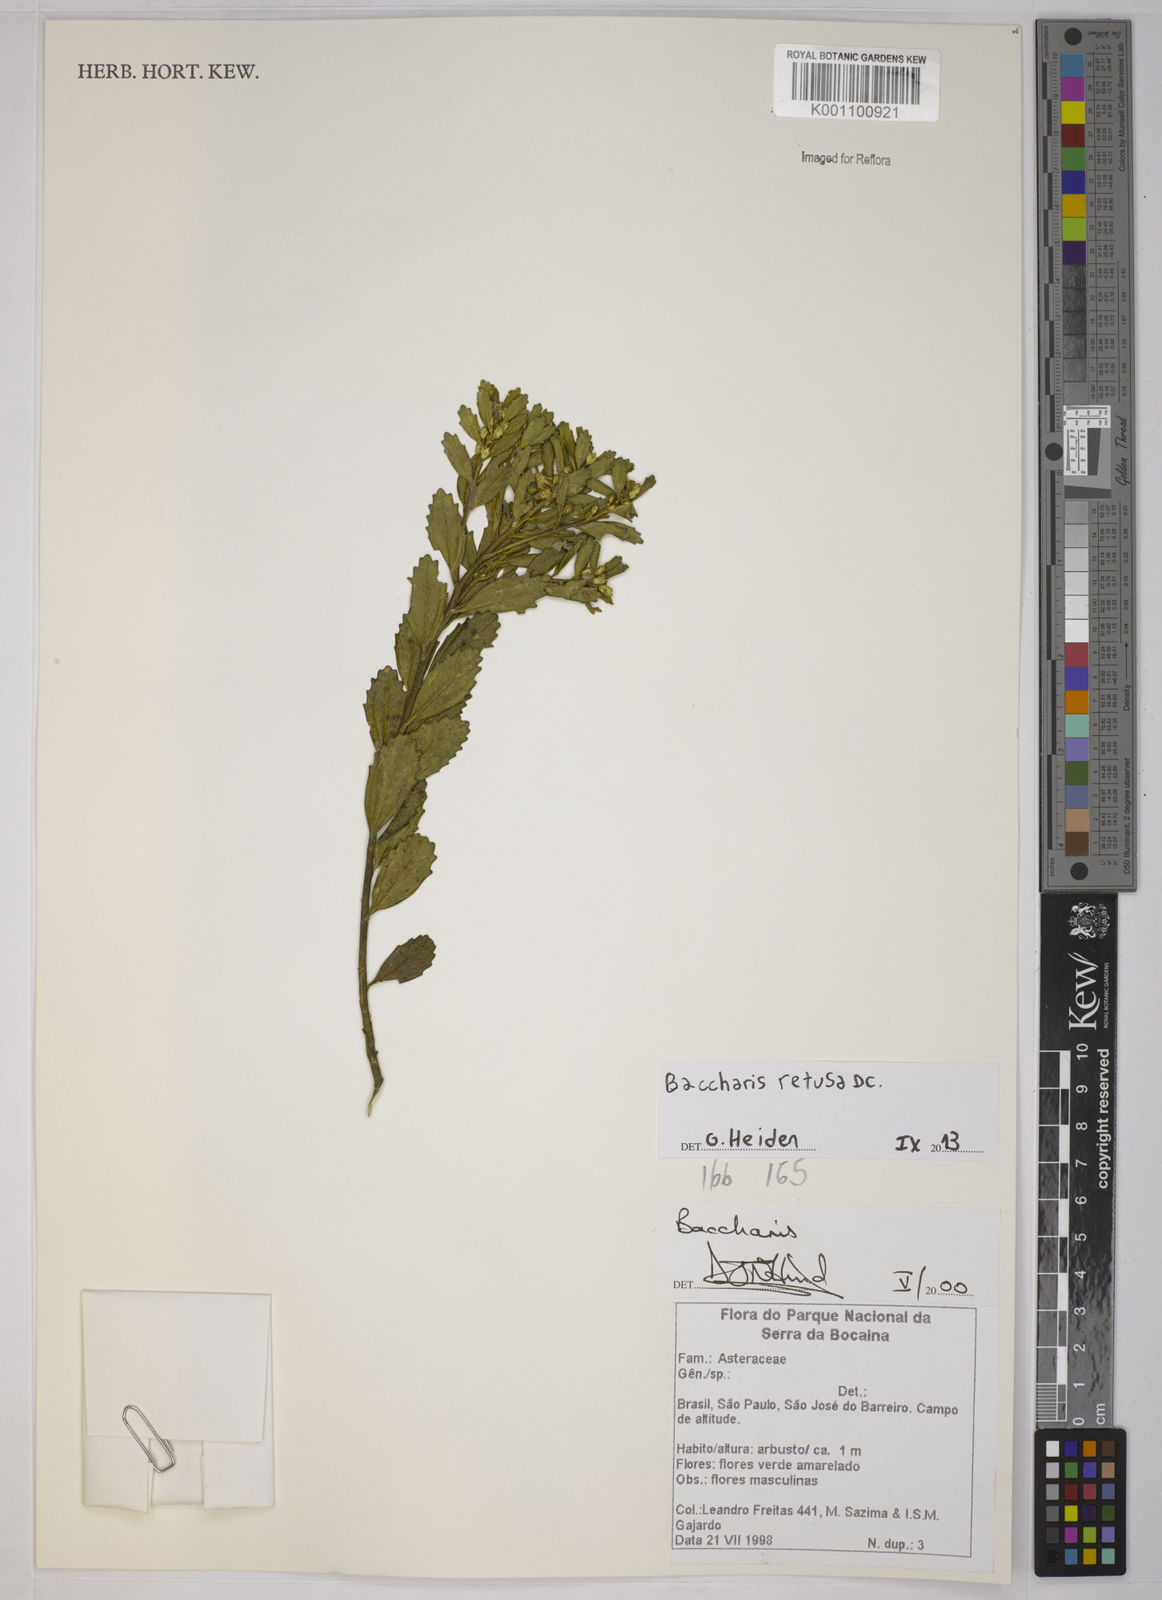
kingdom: Plantae
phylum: Tracheophyta
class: Magnoliopsida
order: Asterales
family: Asteraceae
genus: Baccharis
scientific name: Baccharis retusa
